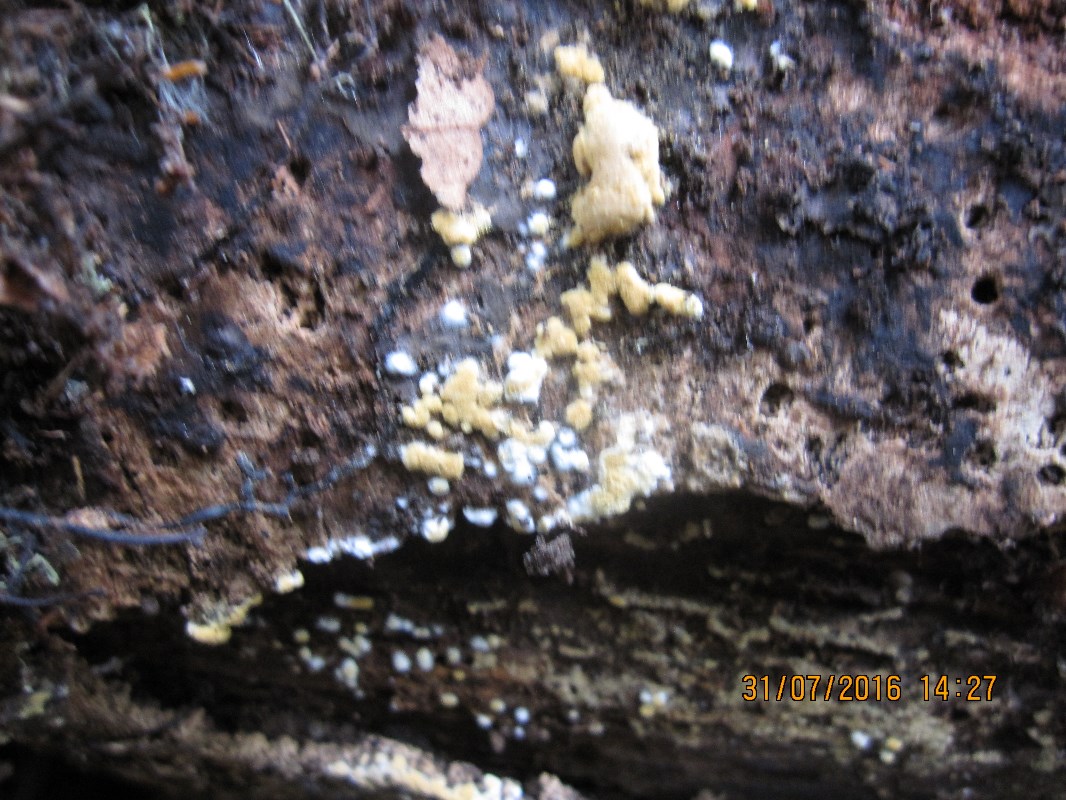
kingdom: Fungi
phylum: Basidiomycota
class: Agaricomycetes
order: Cantharellales
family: Botryobasidiaceae
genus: Botryobasidium
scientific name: Botryobasidium aureum
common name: gylden spindhinde
